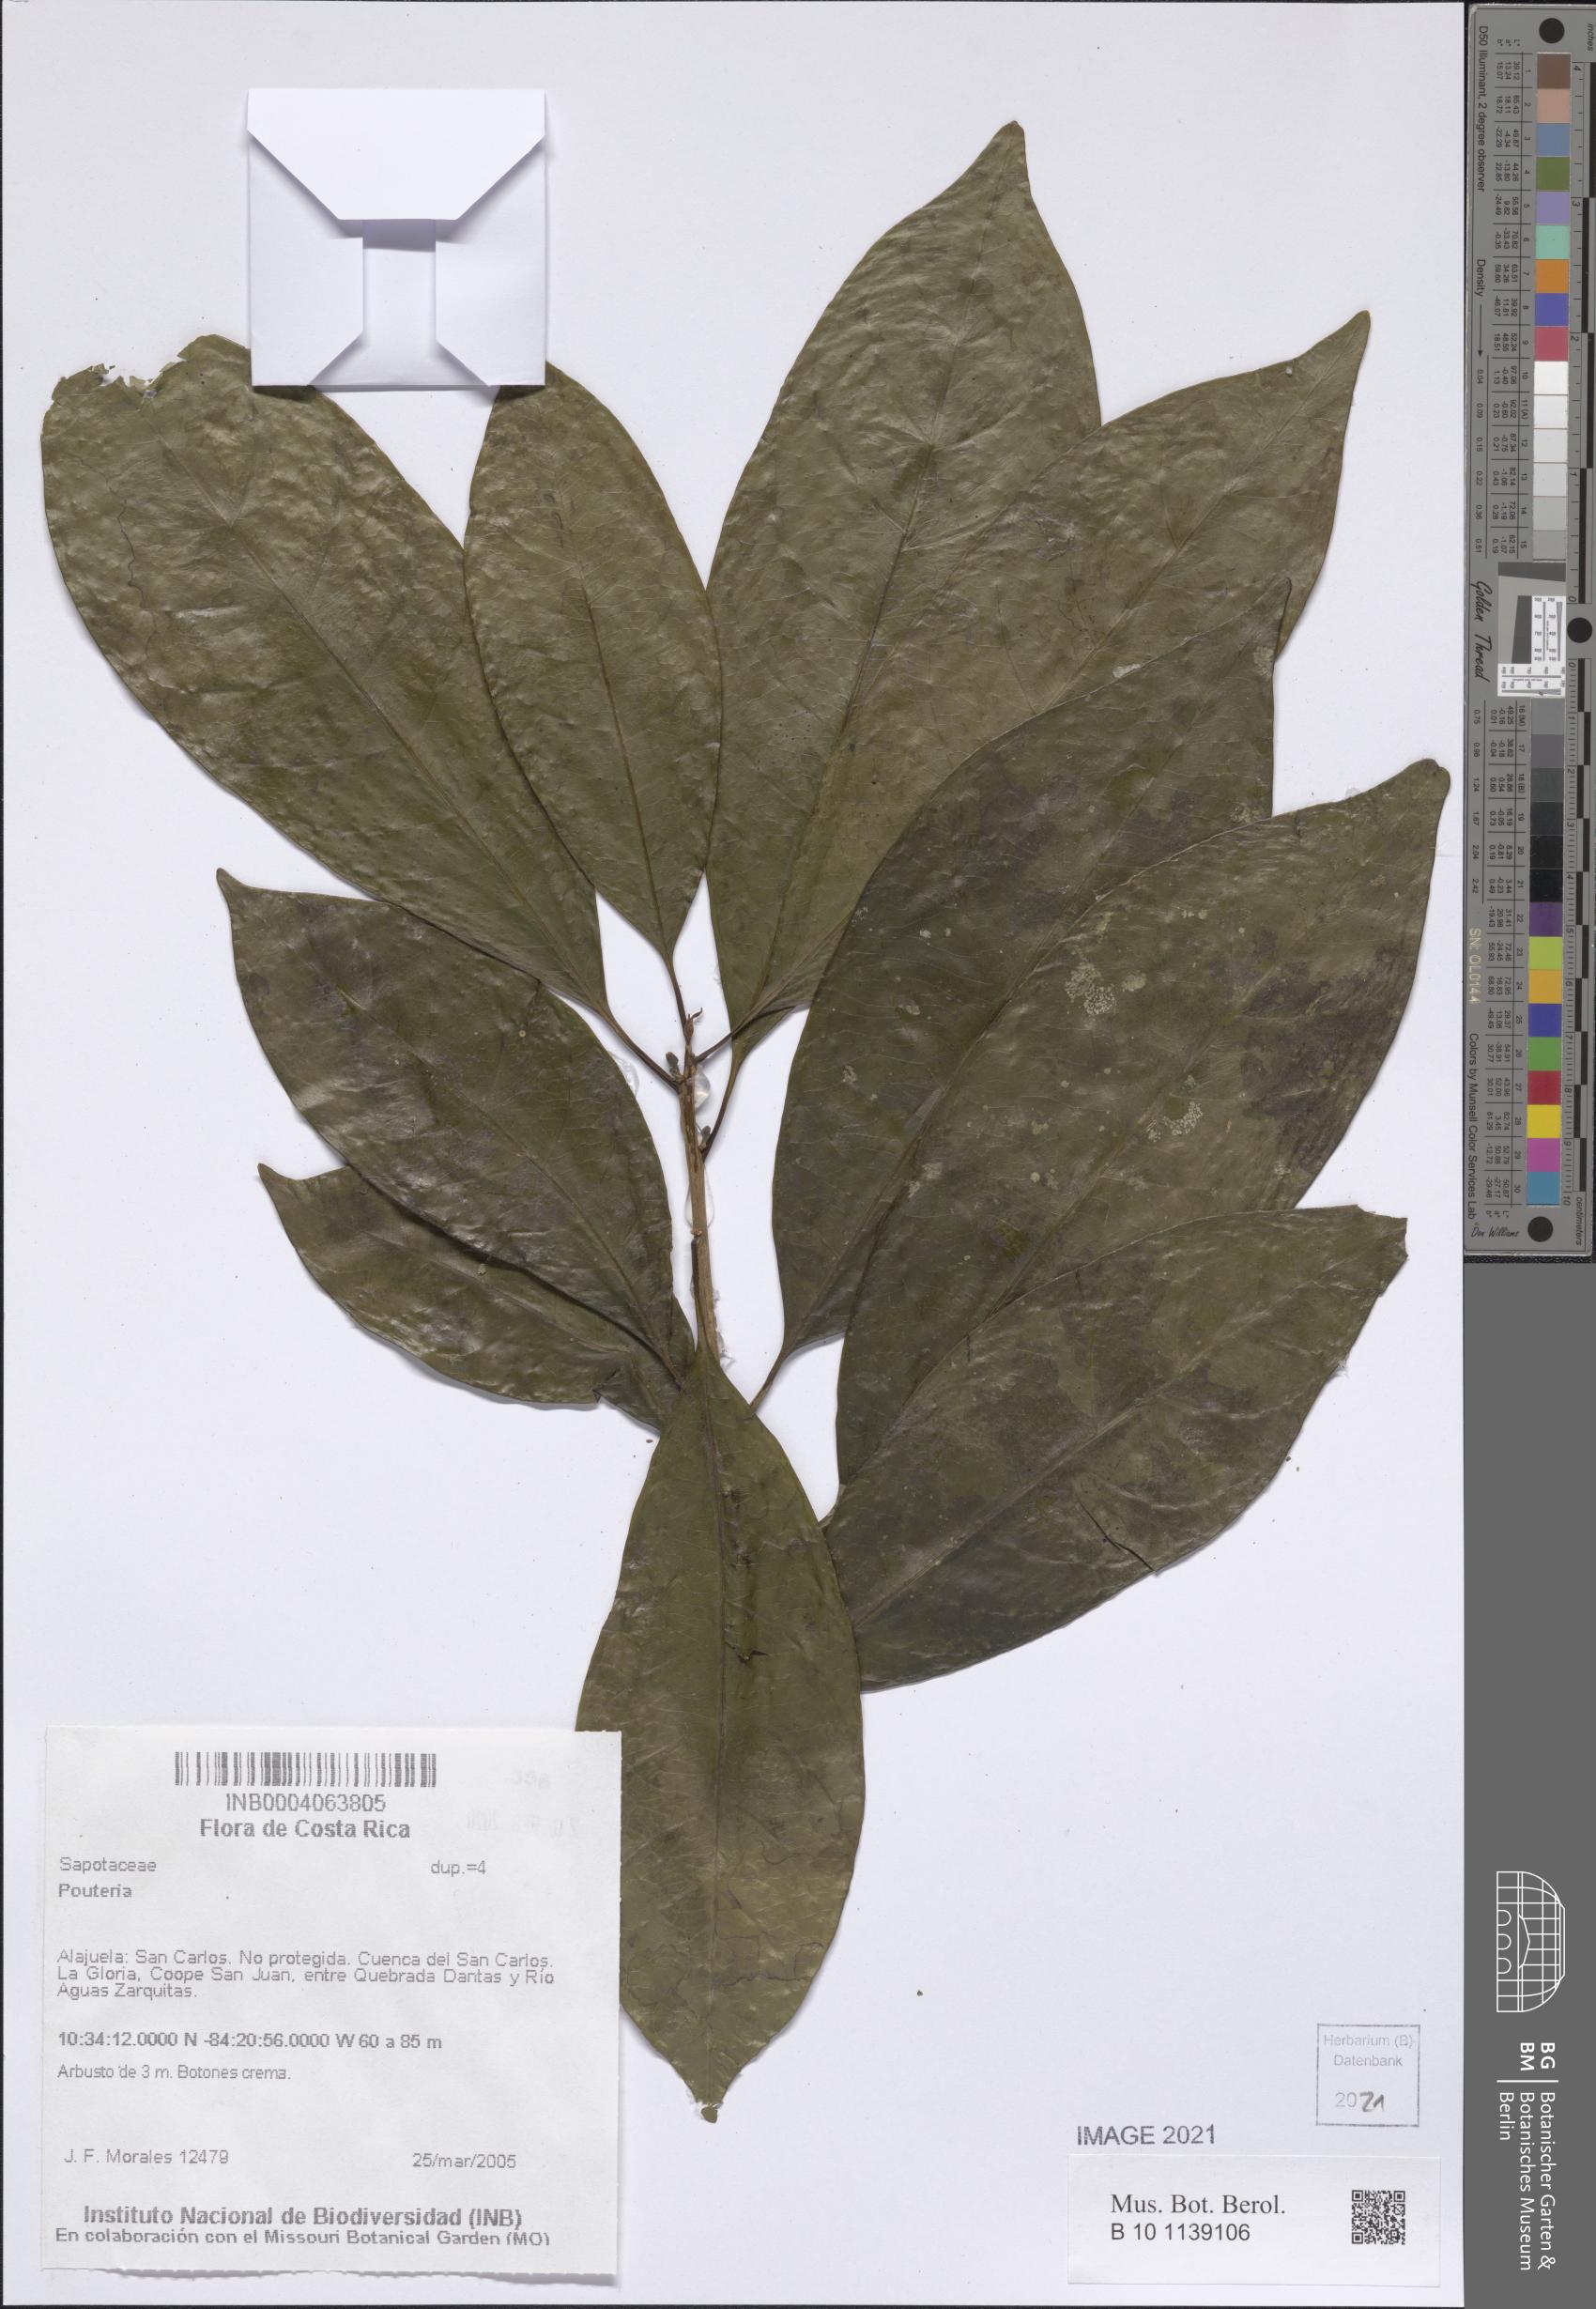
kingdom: Plantae
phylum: Tracheophyta
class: Magnoliopsida
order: Ericales
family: Sapotaceae
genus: Pouteria
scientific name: Pouteria
